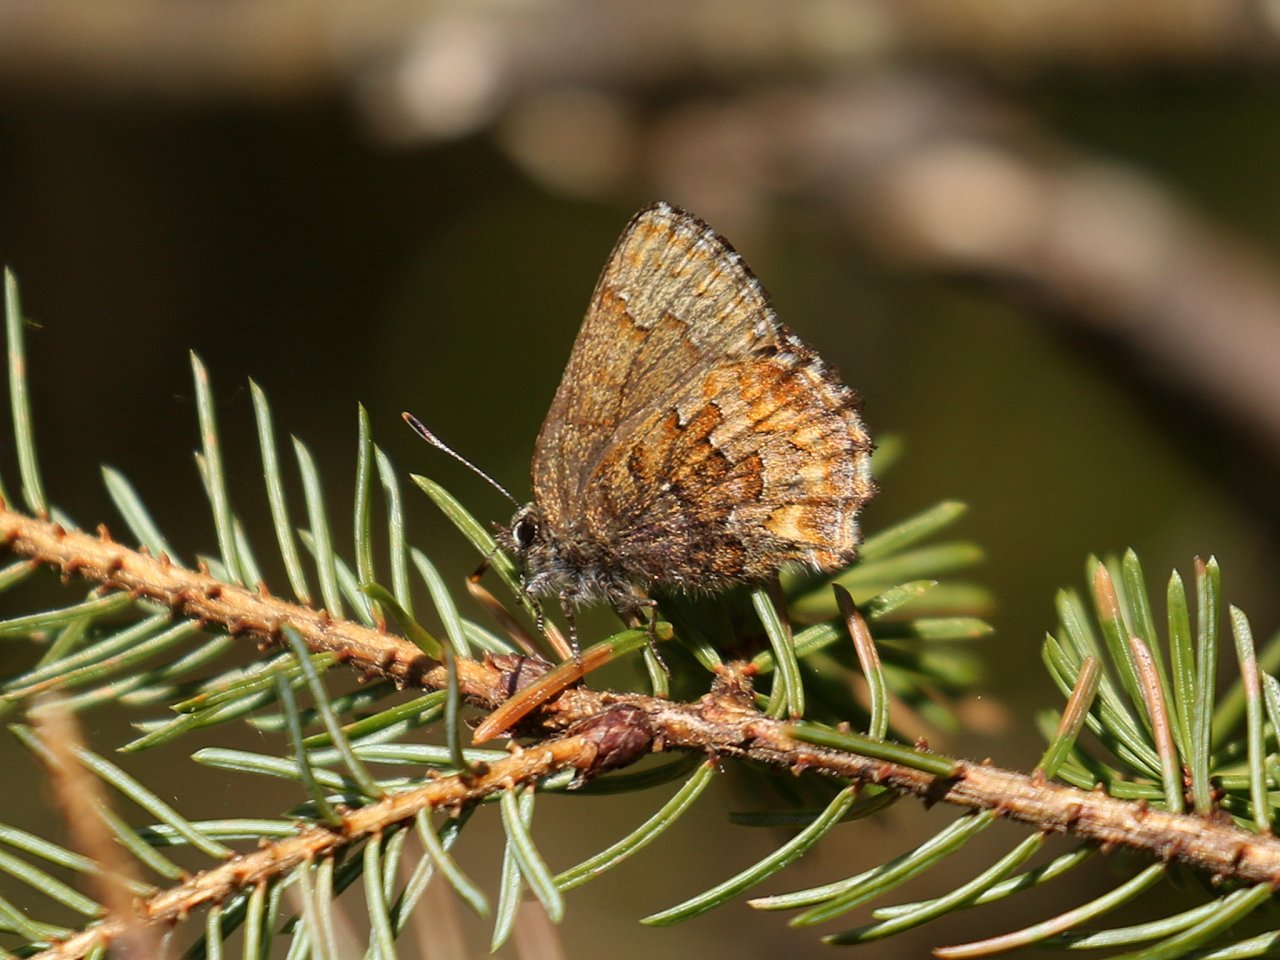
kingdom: Animalia
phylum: Arthropoda
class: Insecta
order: Lepidoptera
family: Lycaenidae
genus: Incisalia
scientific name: Incisalia niphon
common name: Eastern Pine Elfin
